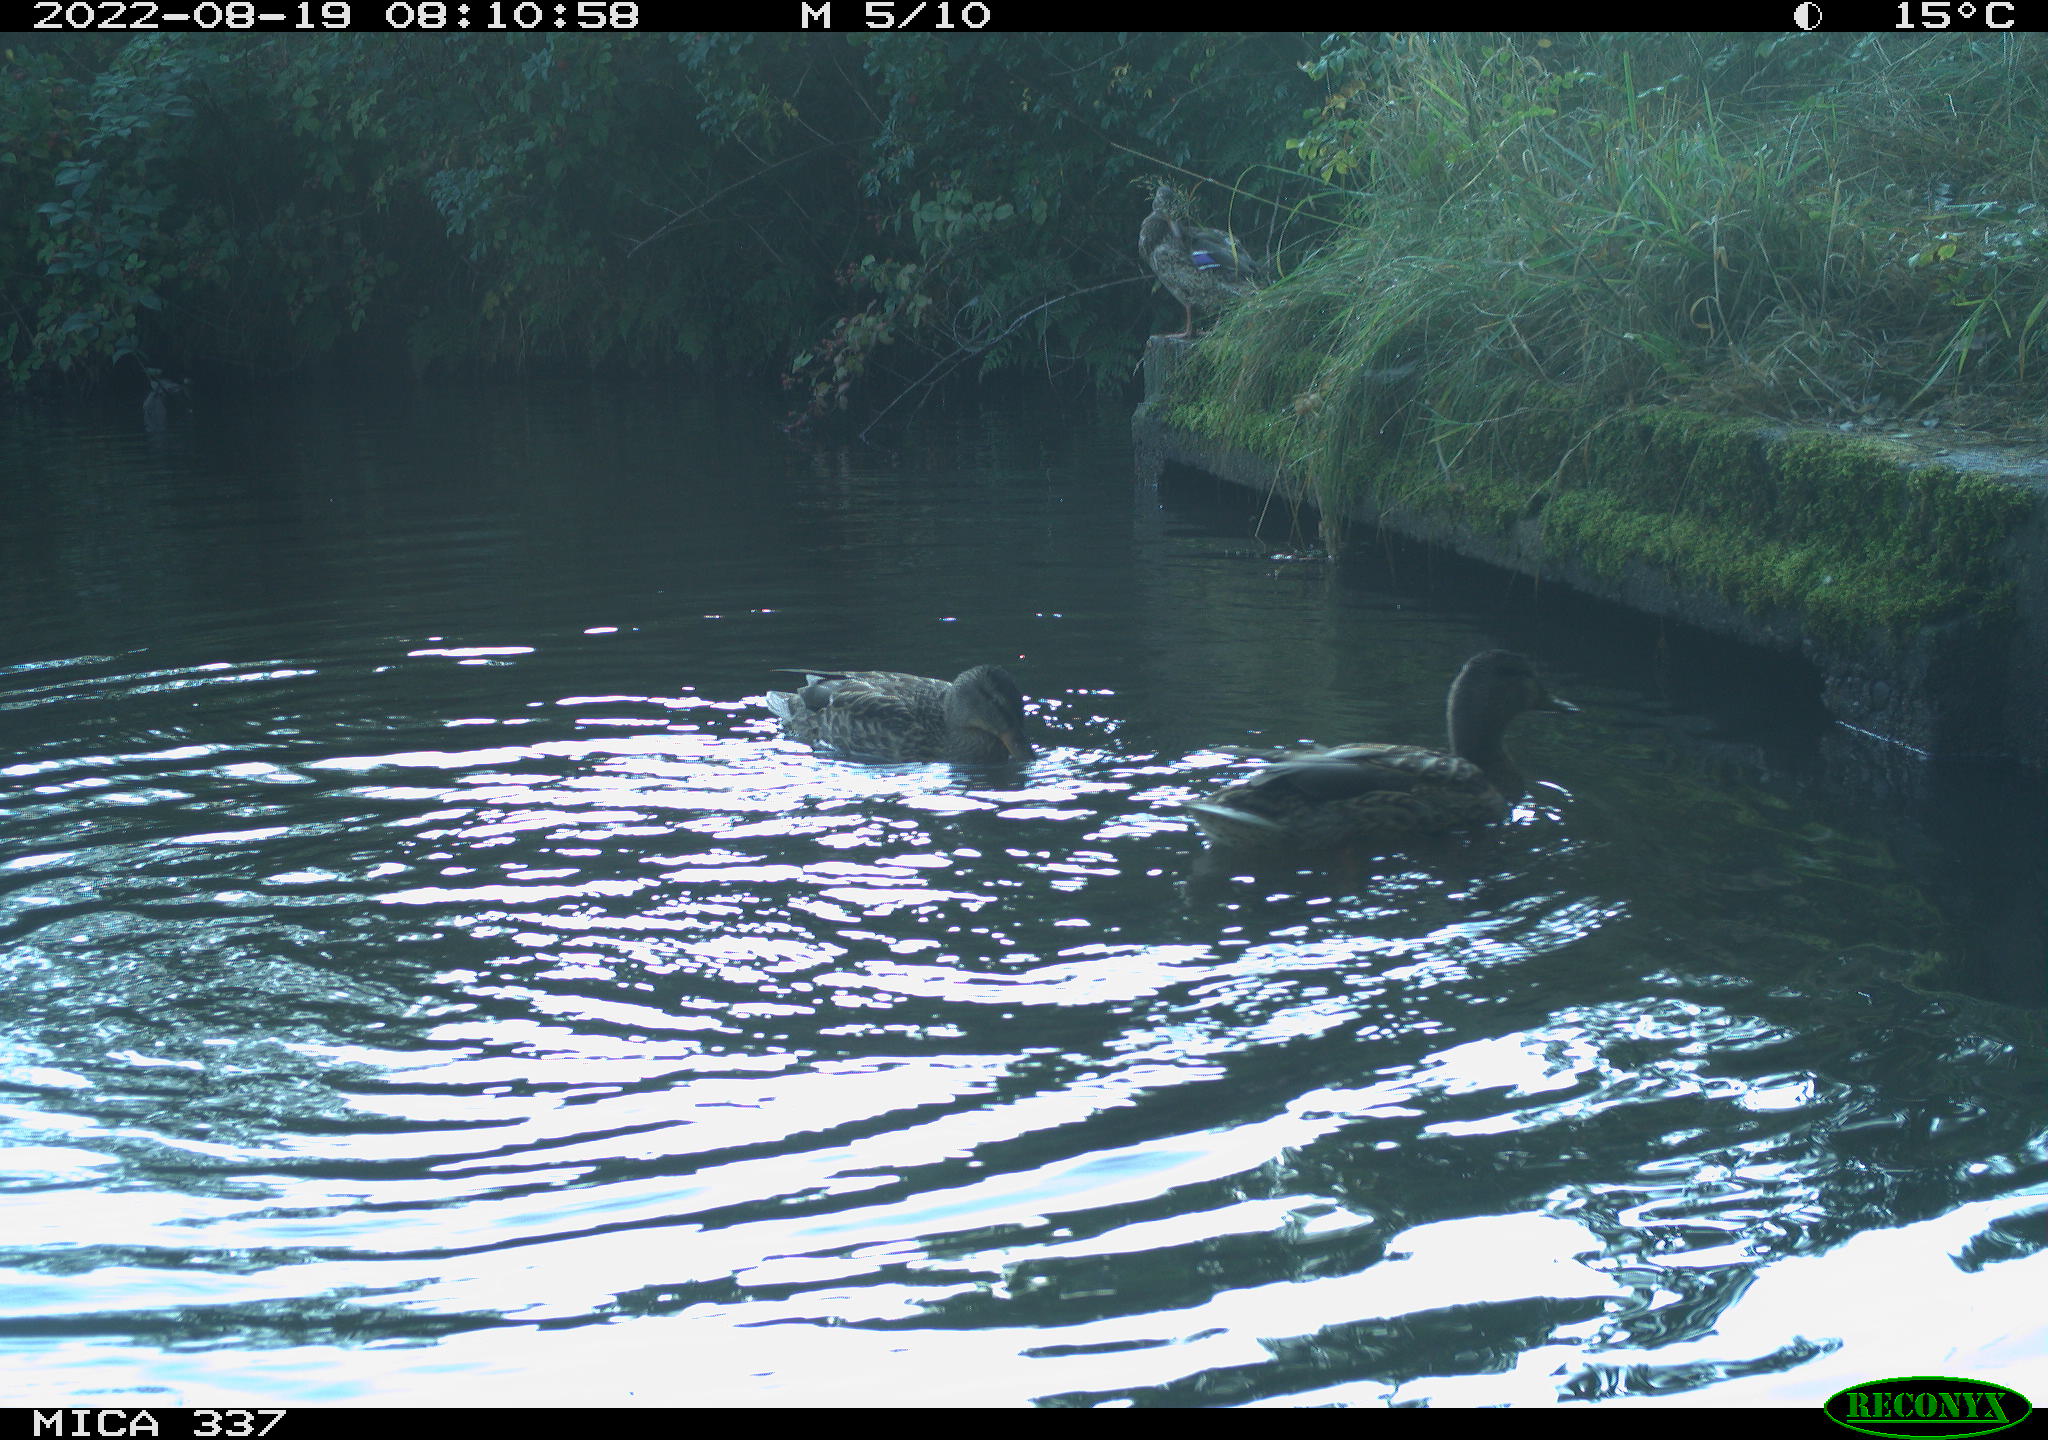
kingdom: Animalia
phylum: Chordata
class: Aves
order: Anseriformes
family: Anatidae
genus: Anas
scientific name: Anas platyrhynchos
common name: Mallard
